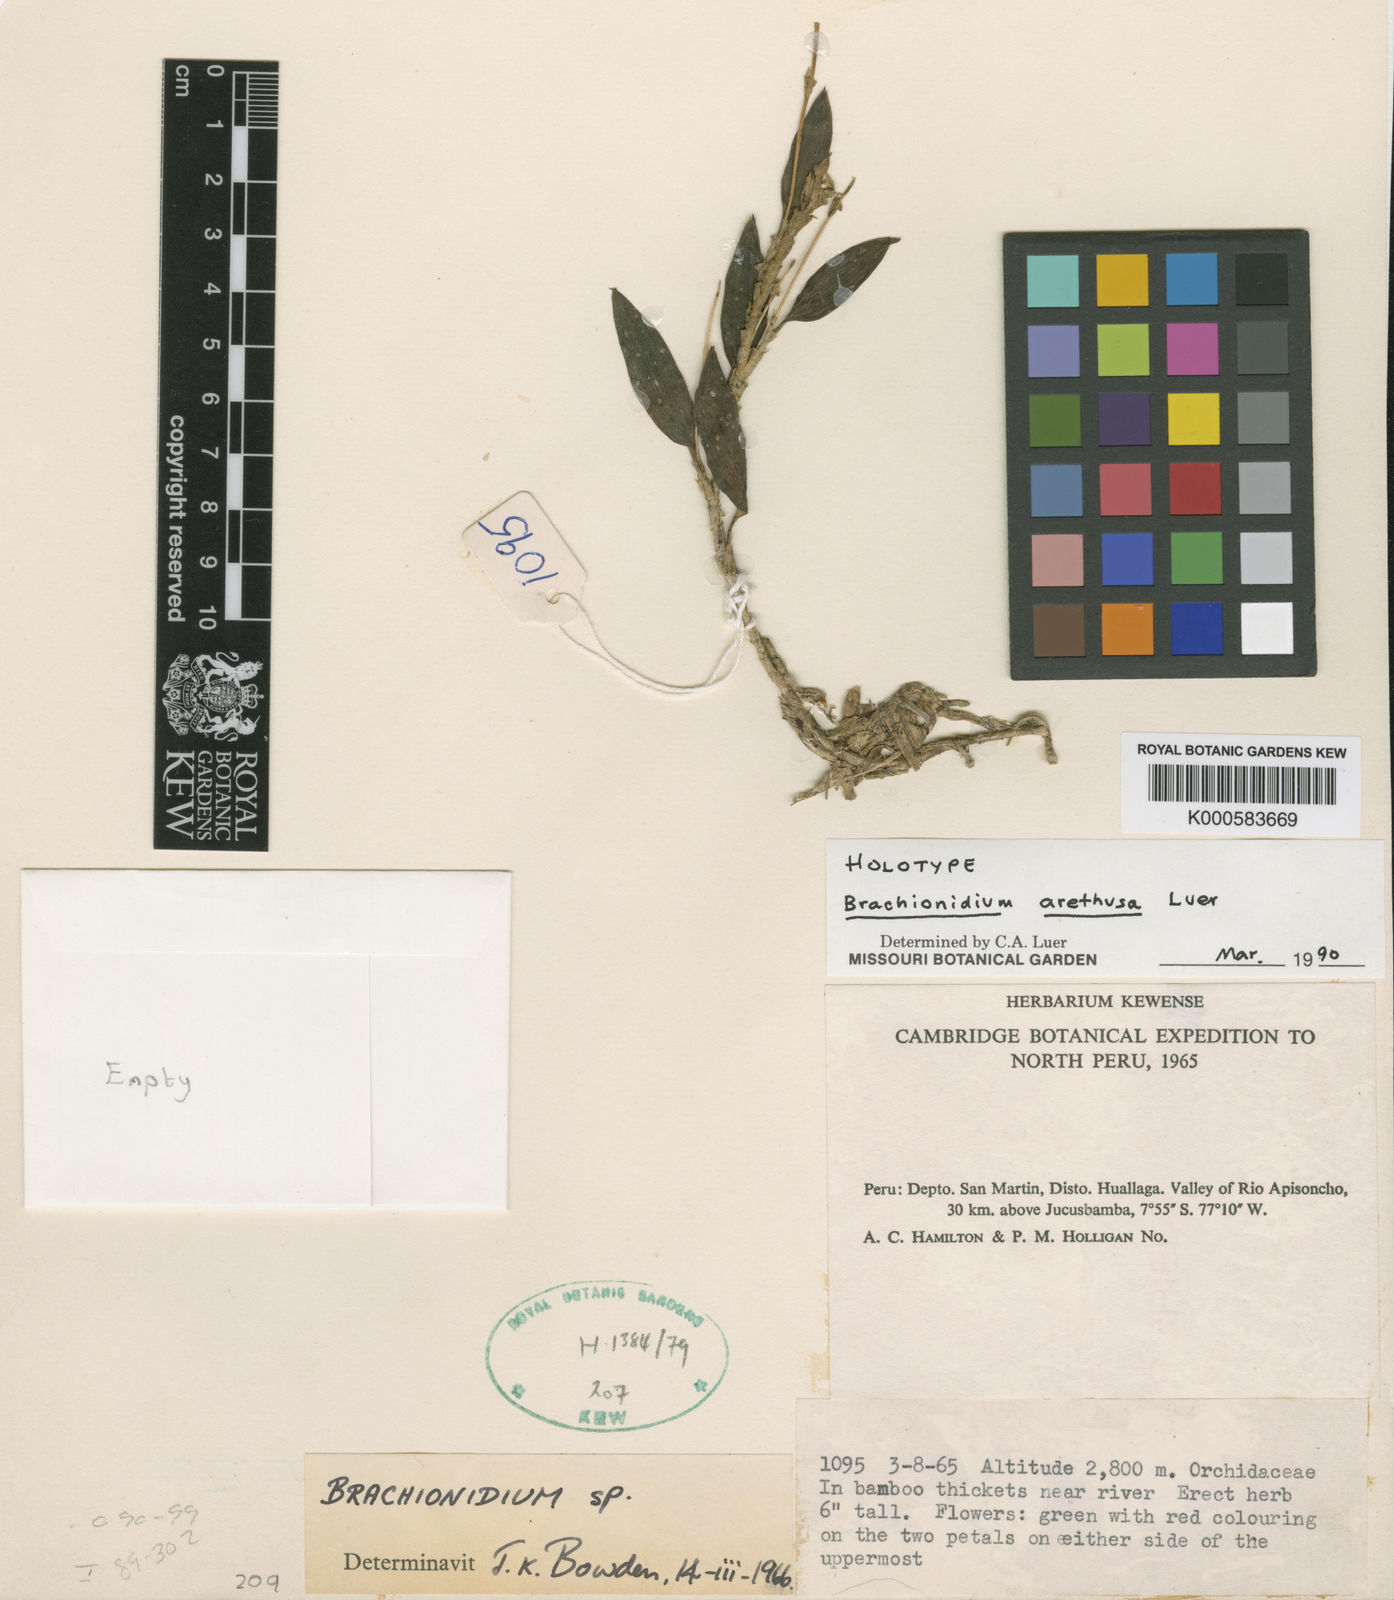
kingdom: Plantae
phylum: Tracheophyta
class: Liliopsida
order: Asparagales
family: Orchidaceae
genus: Brachionidium
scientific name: Brachionidium arethusa
